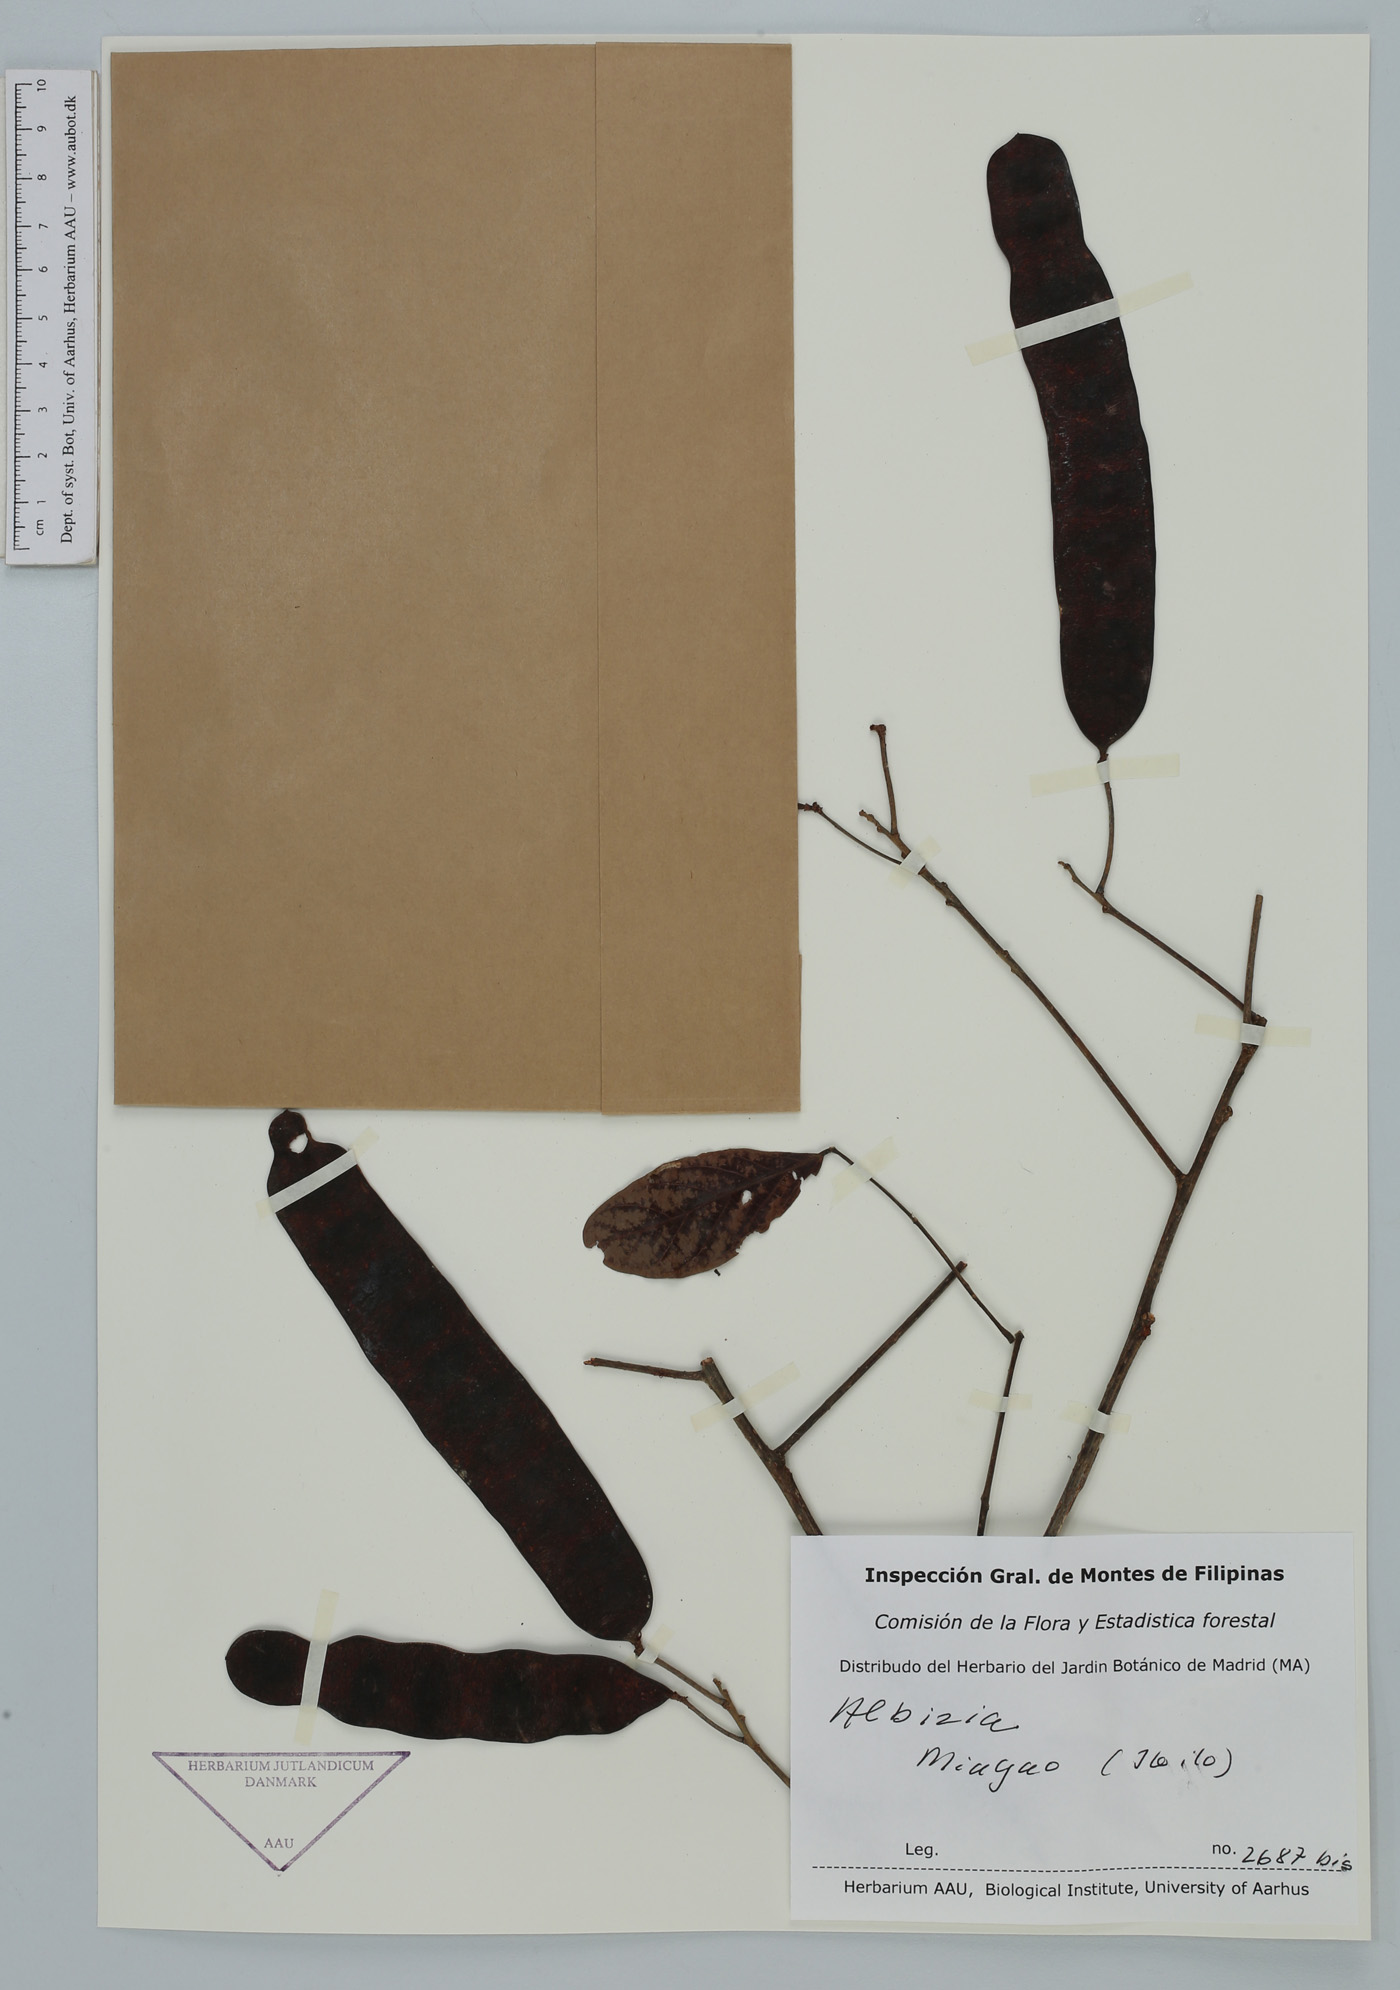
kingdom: Plantae
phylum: Tracheophyta
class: Magnoliopsida
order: Fabales
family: Fabaceae
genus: Albizia
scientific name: Albizia
